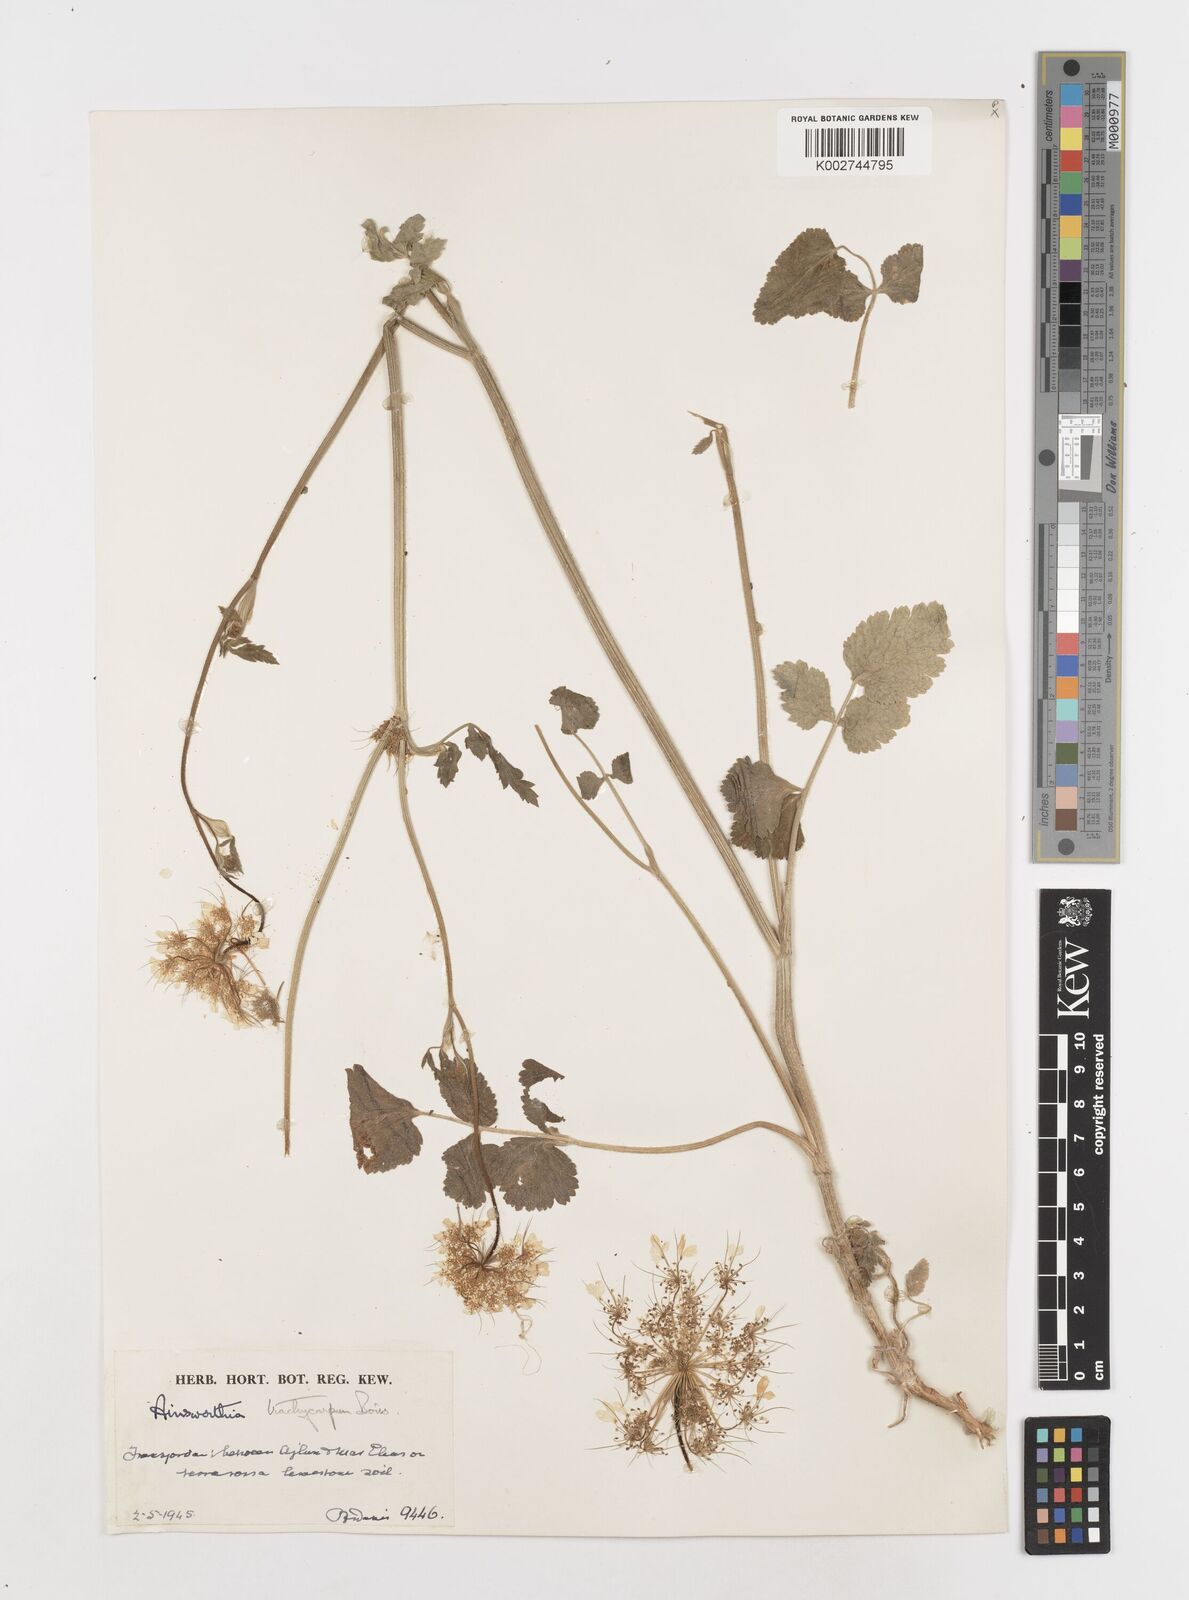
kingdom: Plantae
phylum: Tracheophyta
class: Magnoliopsida
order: Apiales
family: Apiaceae
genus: Ainsworthia
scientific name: Ainsworthia trachycarpa
